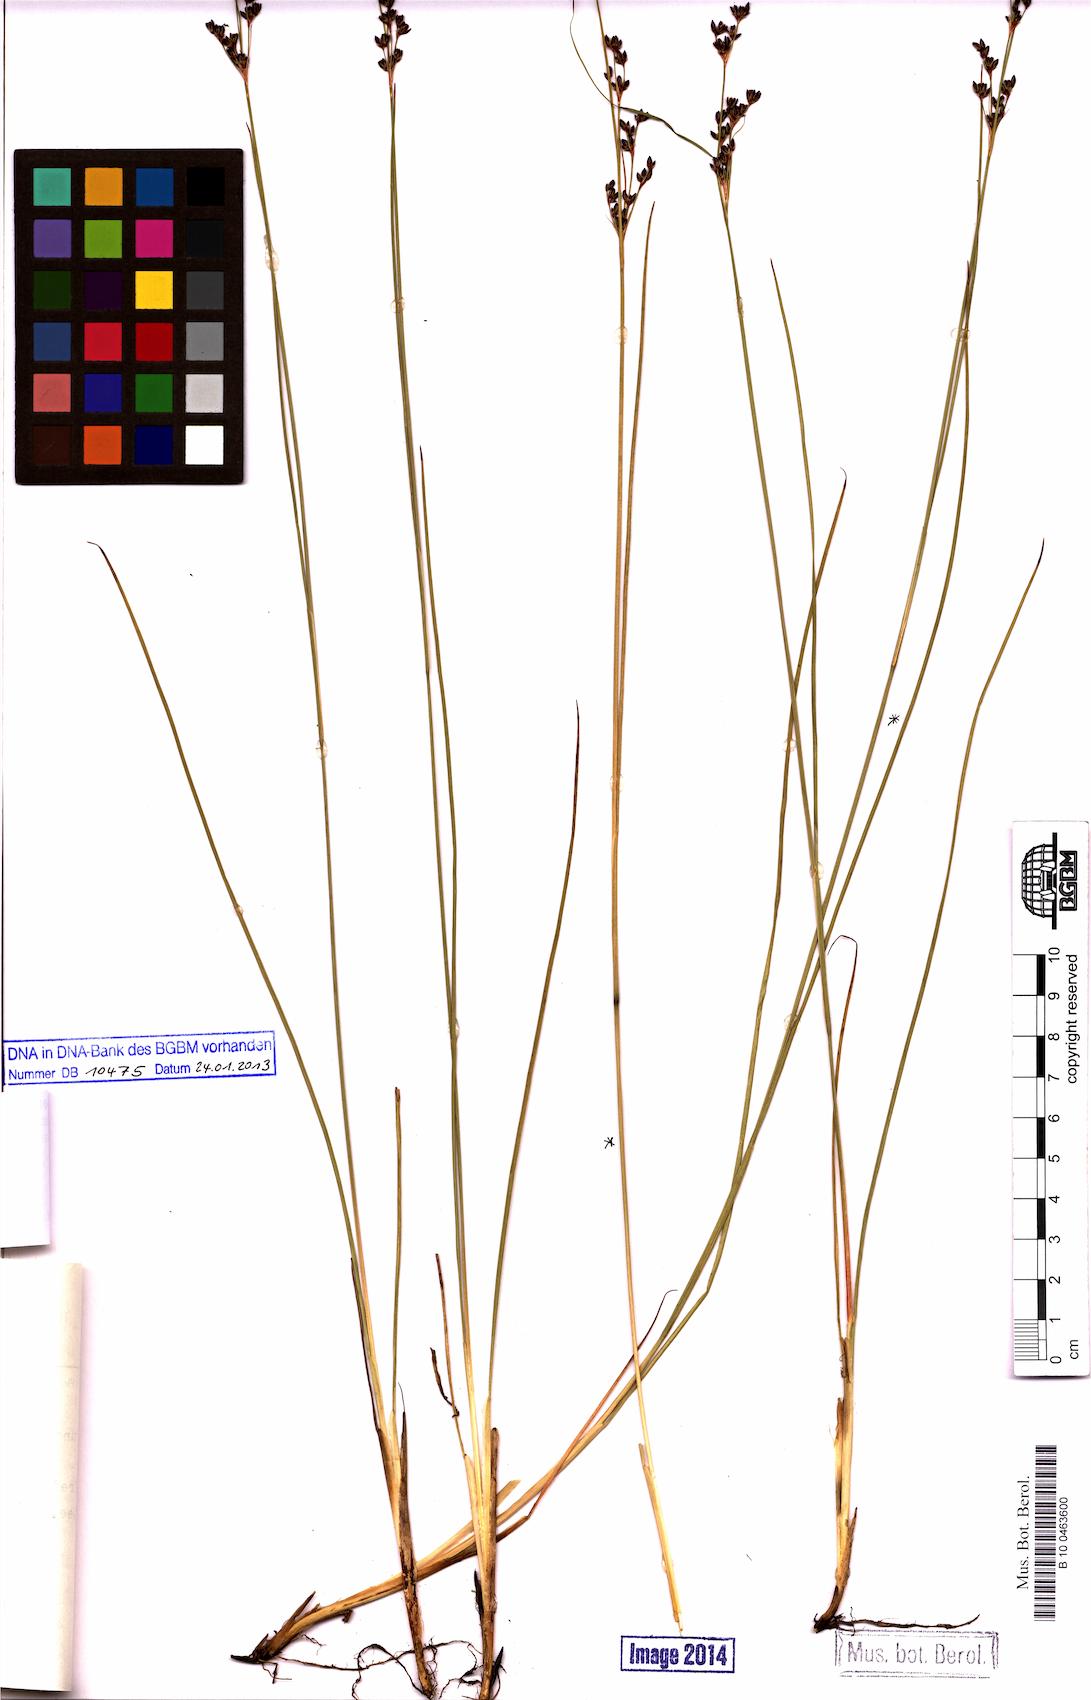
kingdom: Plantae
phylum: Tracheophyta
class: Liliopsida
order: Poales
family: Juncaceae
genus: Juncus
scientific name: Juncus gerardi
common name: Saltmarsh rush
